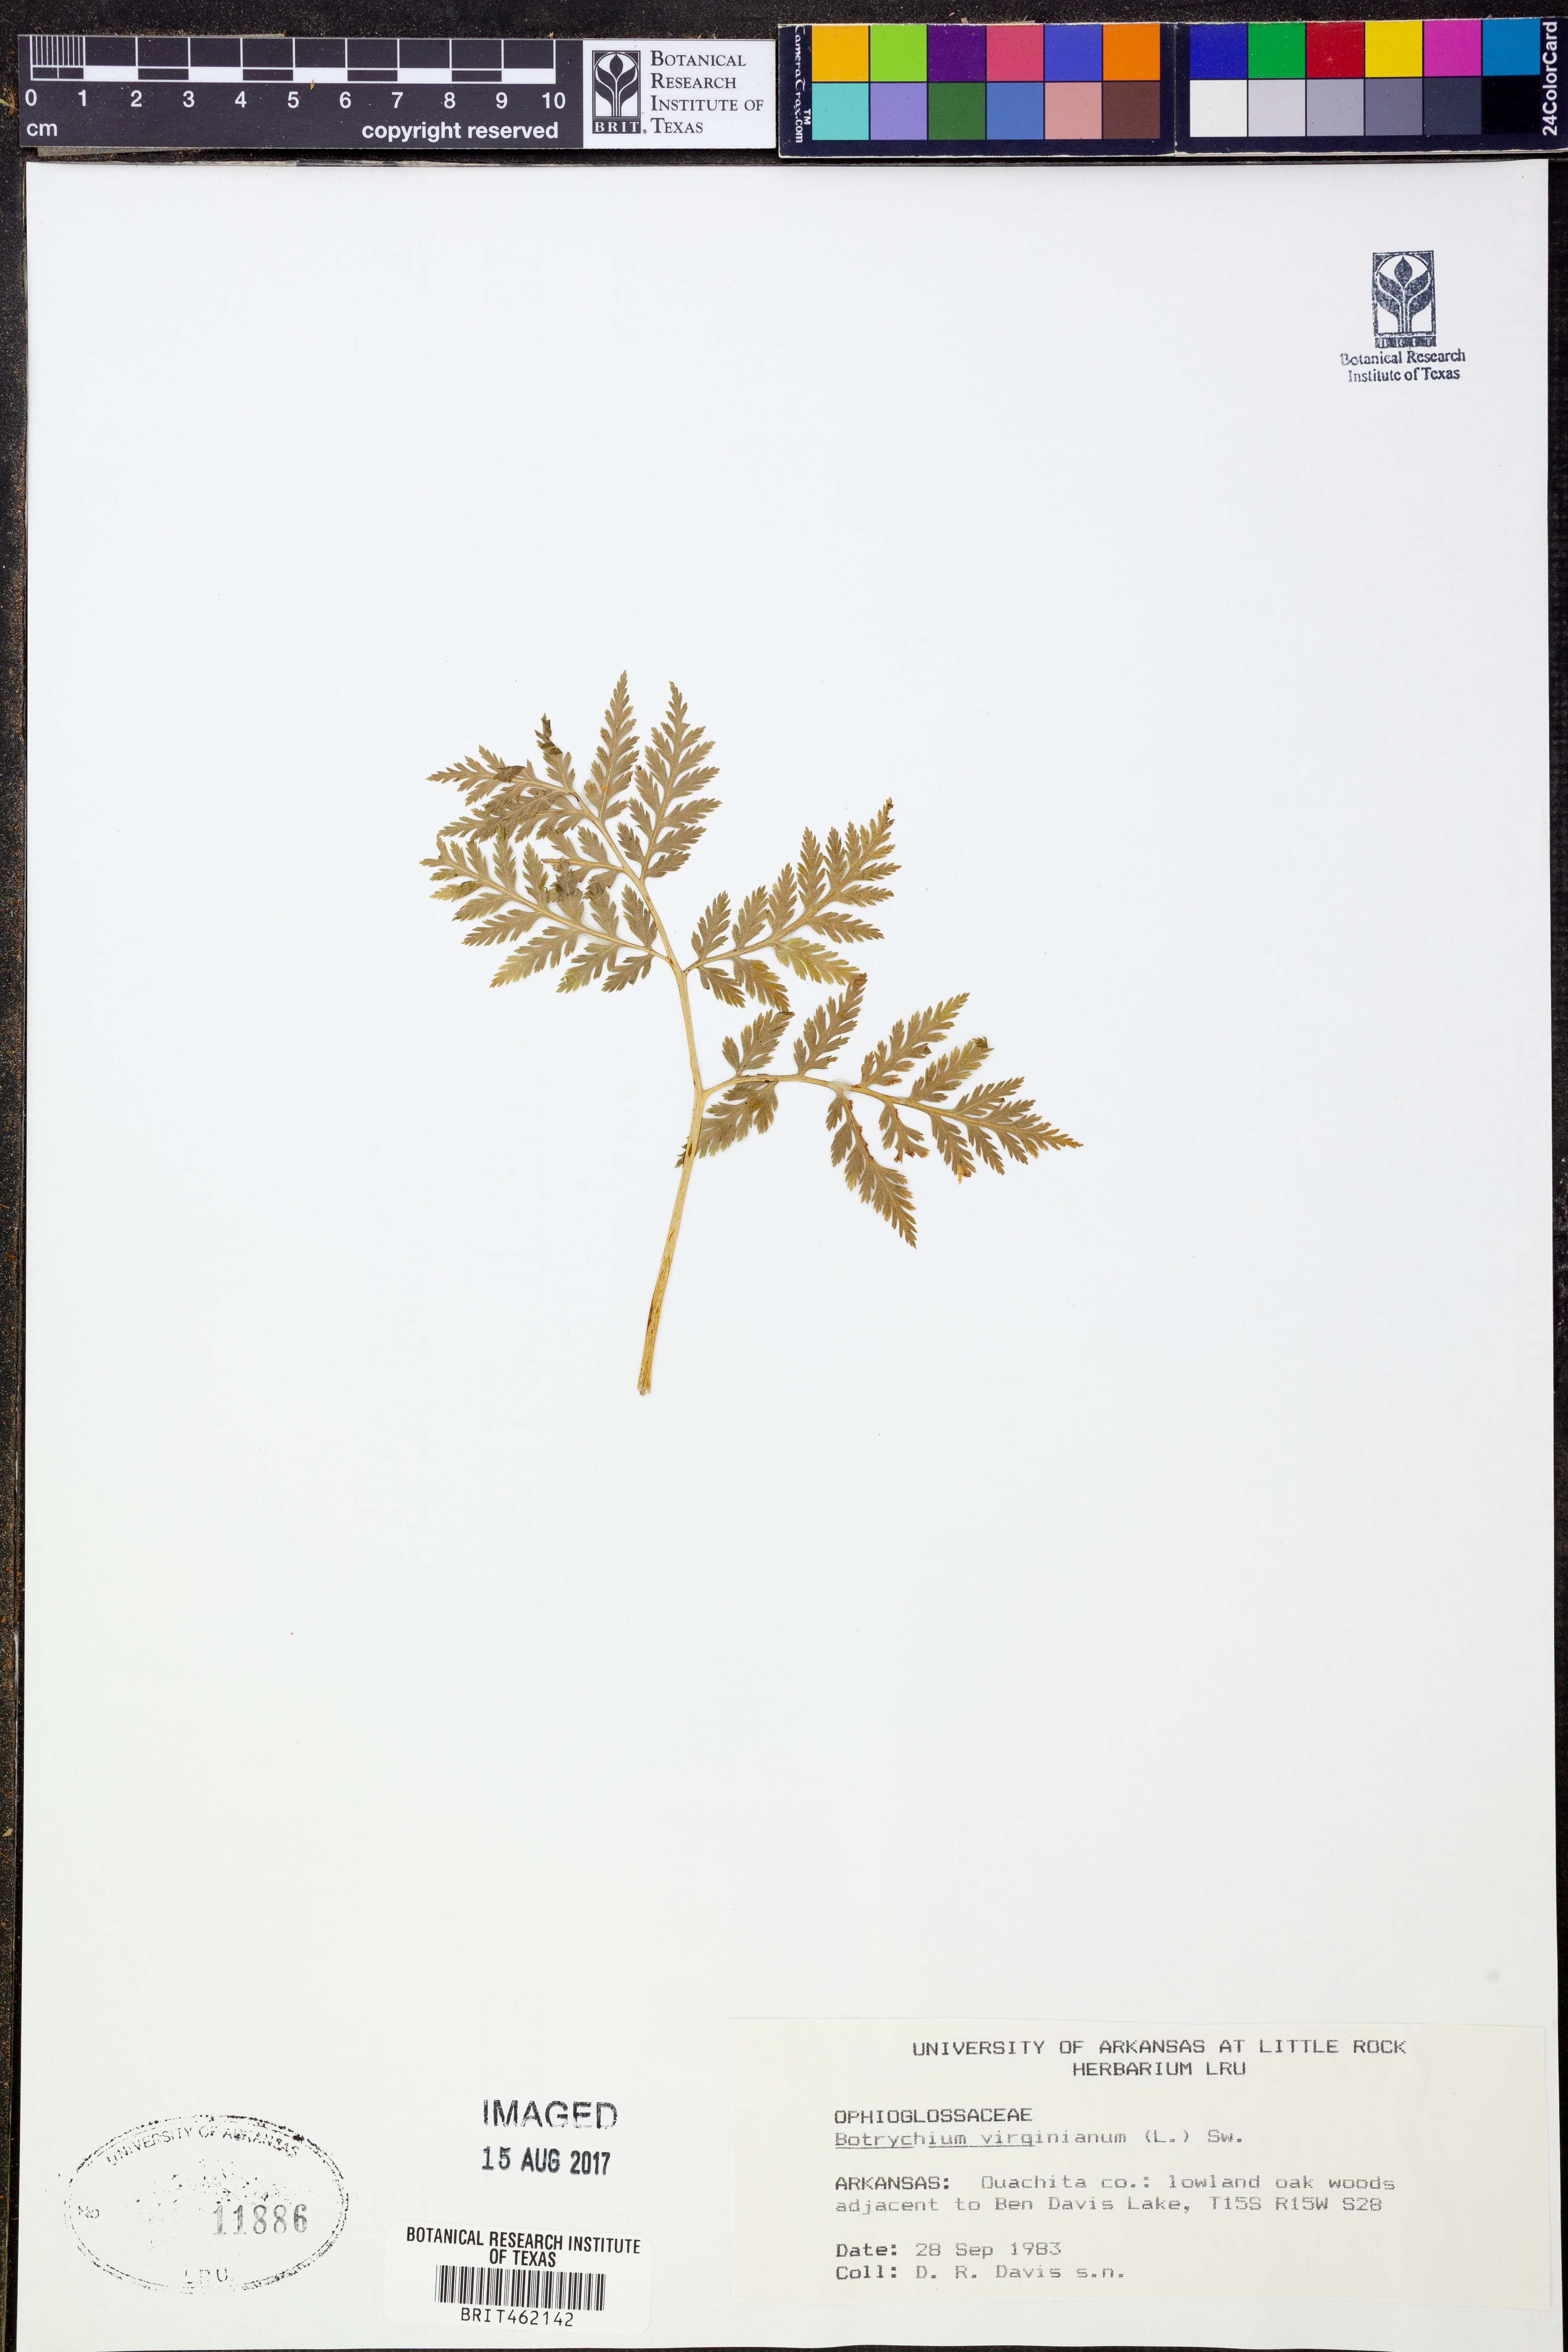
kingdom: Plantae
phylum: Tracheophyta
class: Polypodiopsida
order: Ophioglossales
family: Ophioglossaceae
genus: Botrypus
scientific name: Botrypus virginianus
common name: Common grapefern
